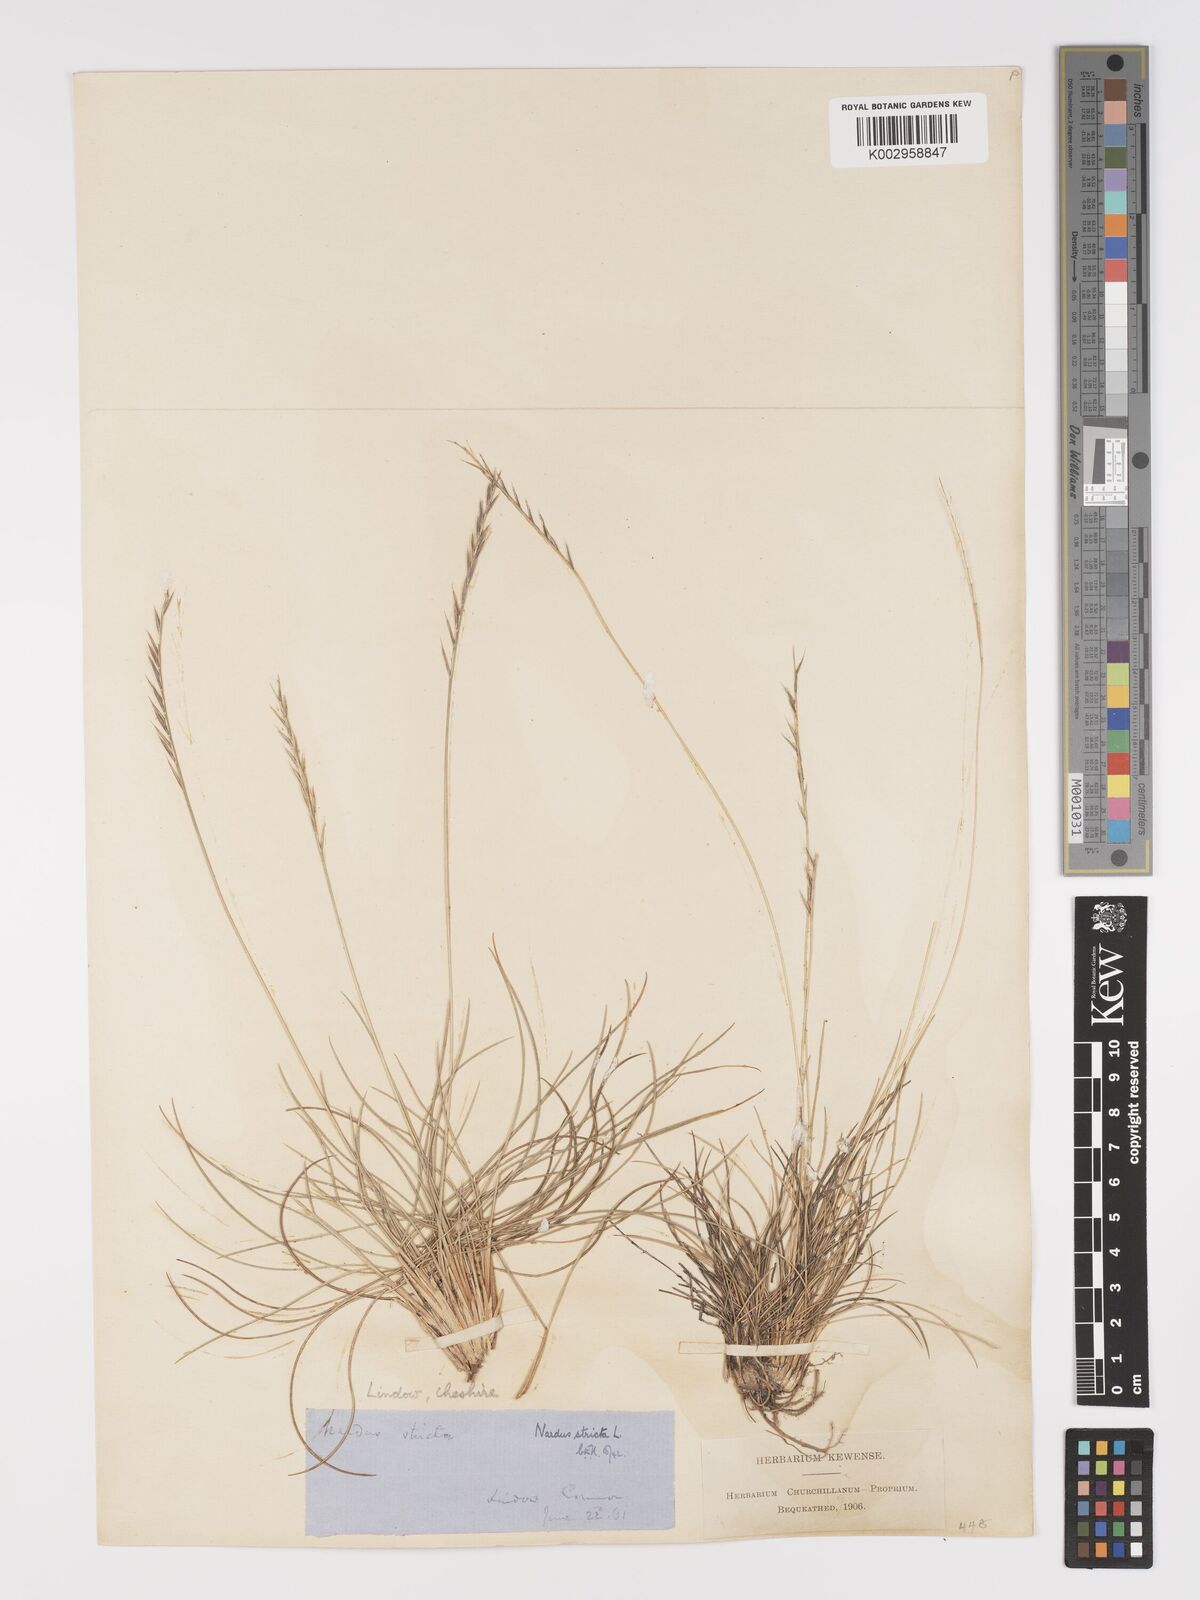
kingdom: Plantae
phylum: Tracheophyta
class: Liliopsida
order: Poales
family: Poaceae
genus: Nardus
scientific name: Nardus stricta
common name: Mat-grass
